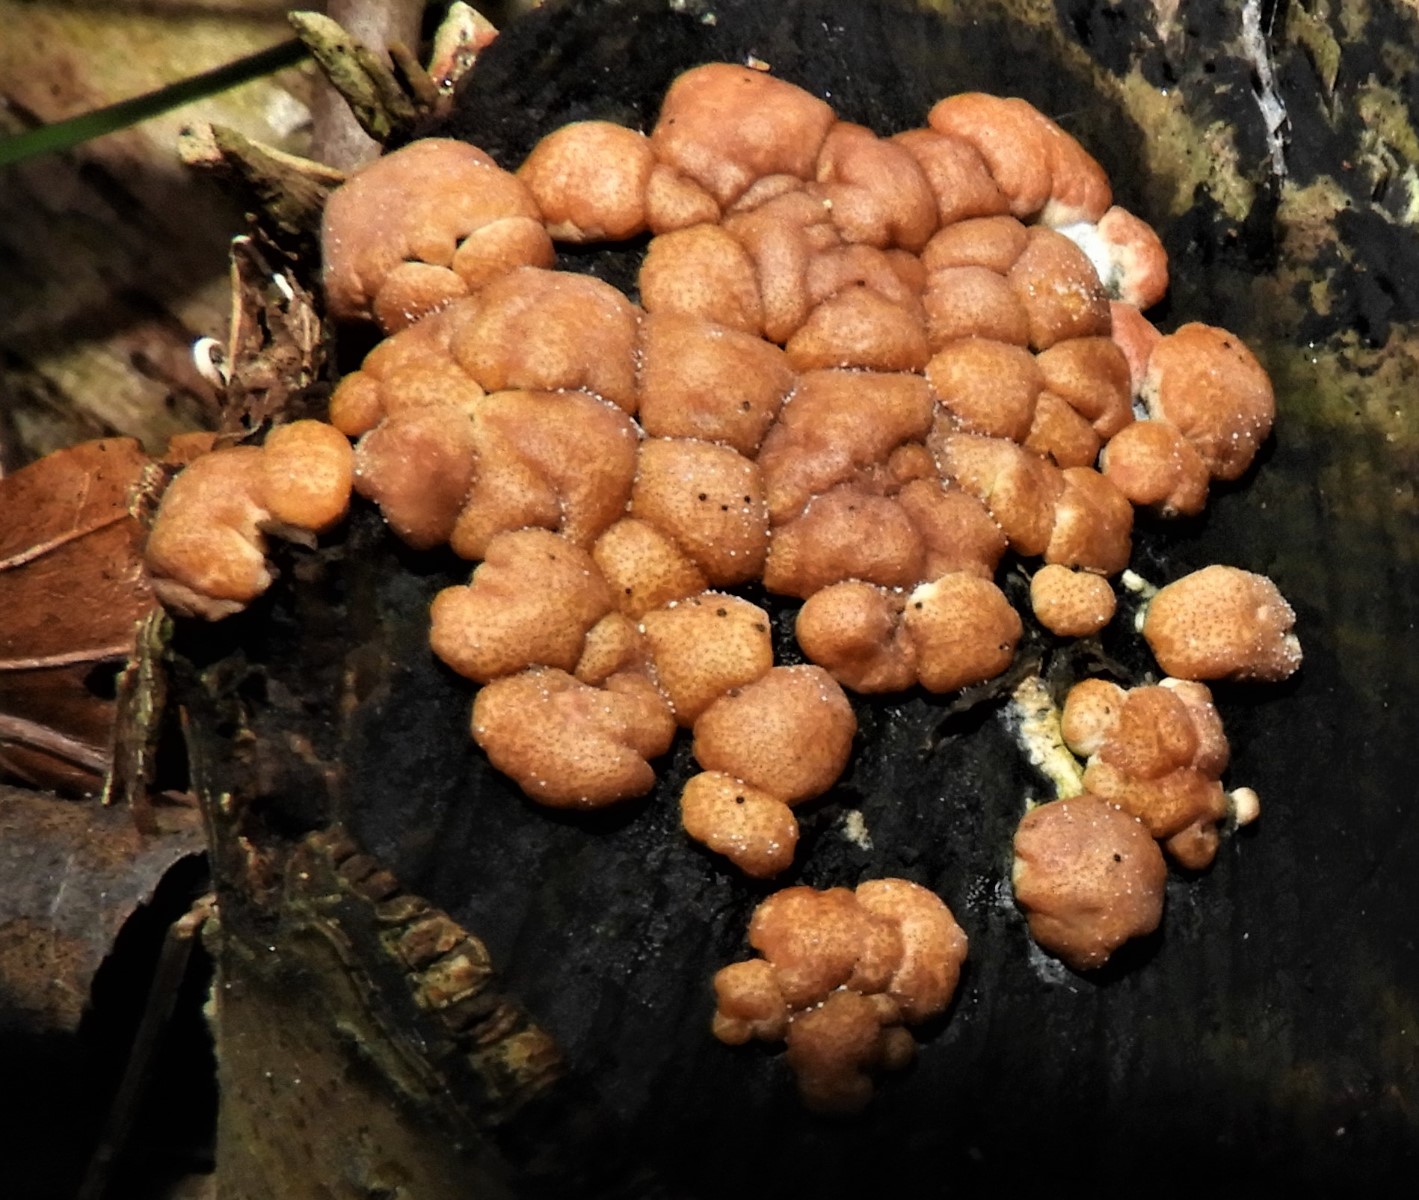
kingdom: Fungi
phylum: Ascomycota
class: Sordariomycetes
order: Hypocreales
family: Hypocreaceae
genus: Trichoderma
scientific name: Trichoderma europaeum
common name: rosabrun kødkerne
